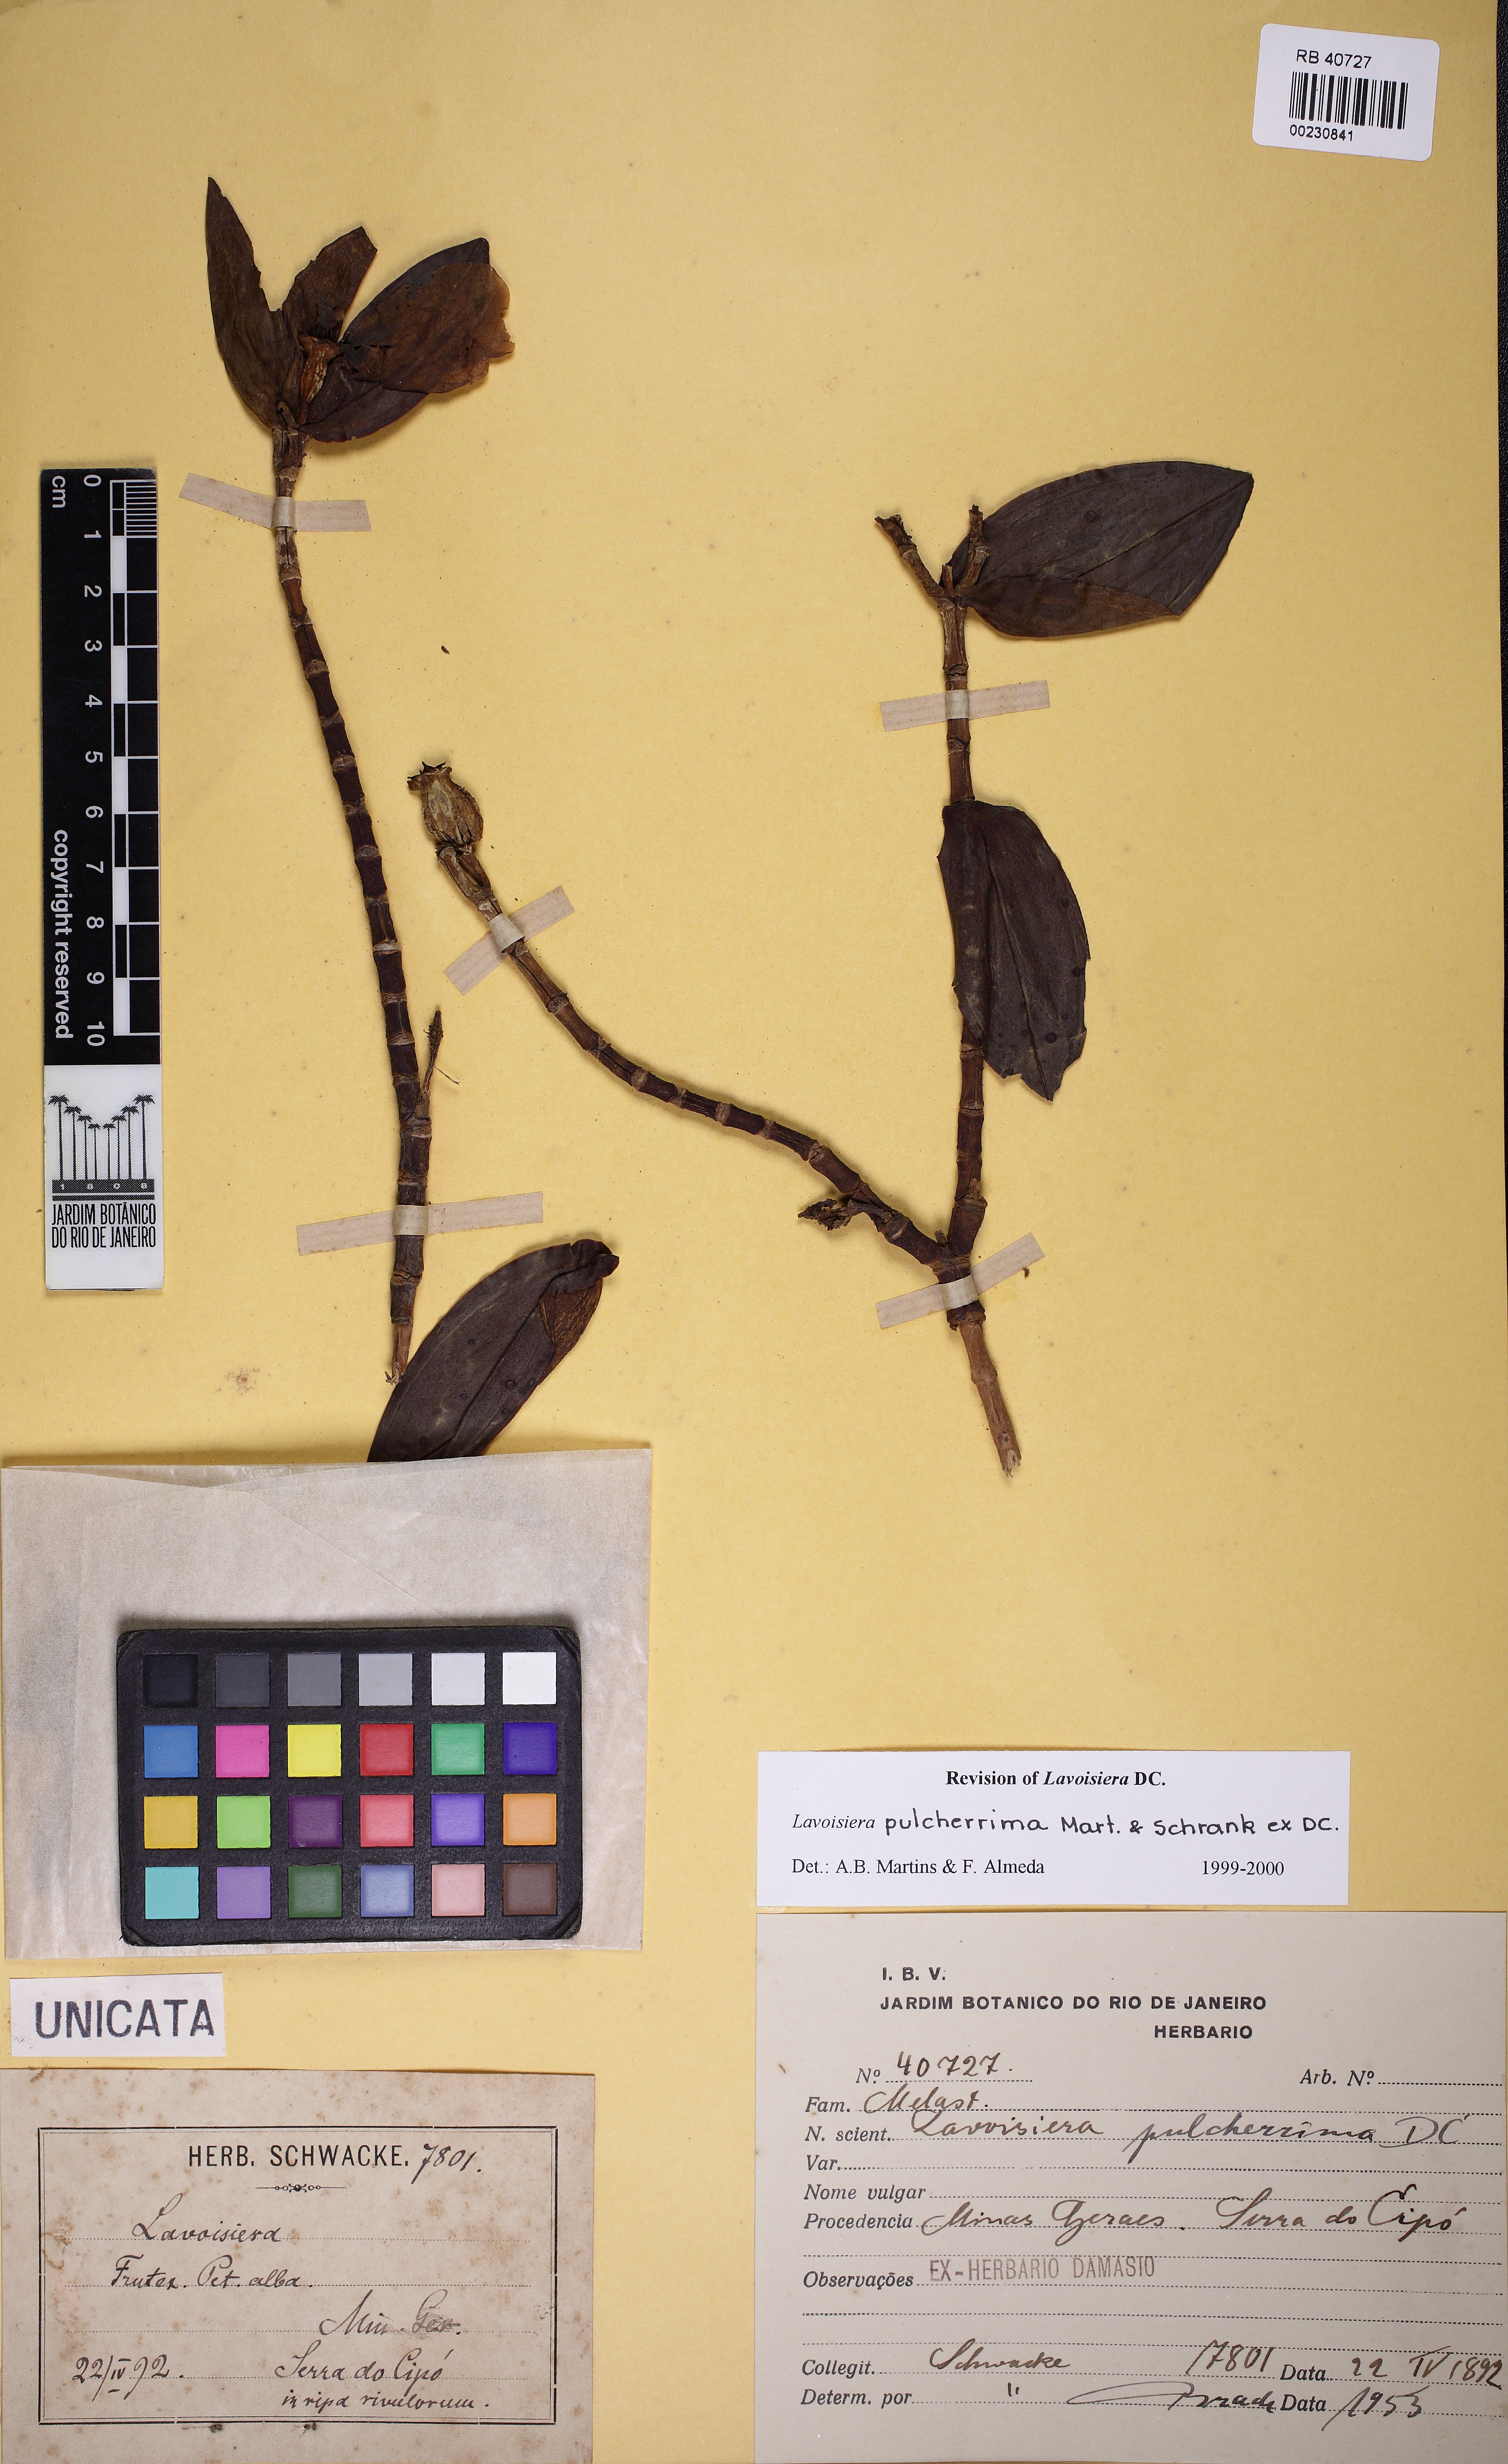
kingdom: Plantae
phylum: Tracheophyta
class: Magnoliopsida
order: Myrtales
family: Melastomataceae
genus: Microlicia
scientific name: Microlicia pulcherrima
